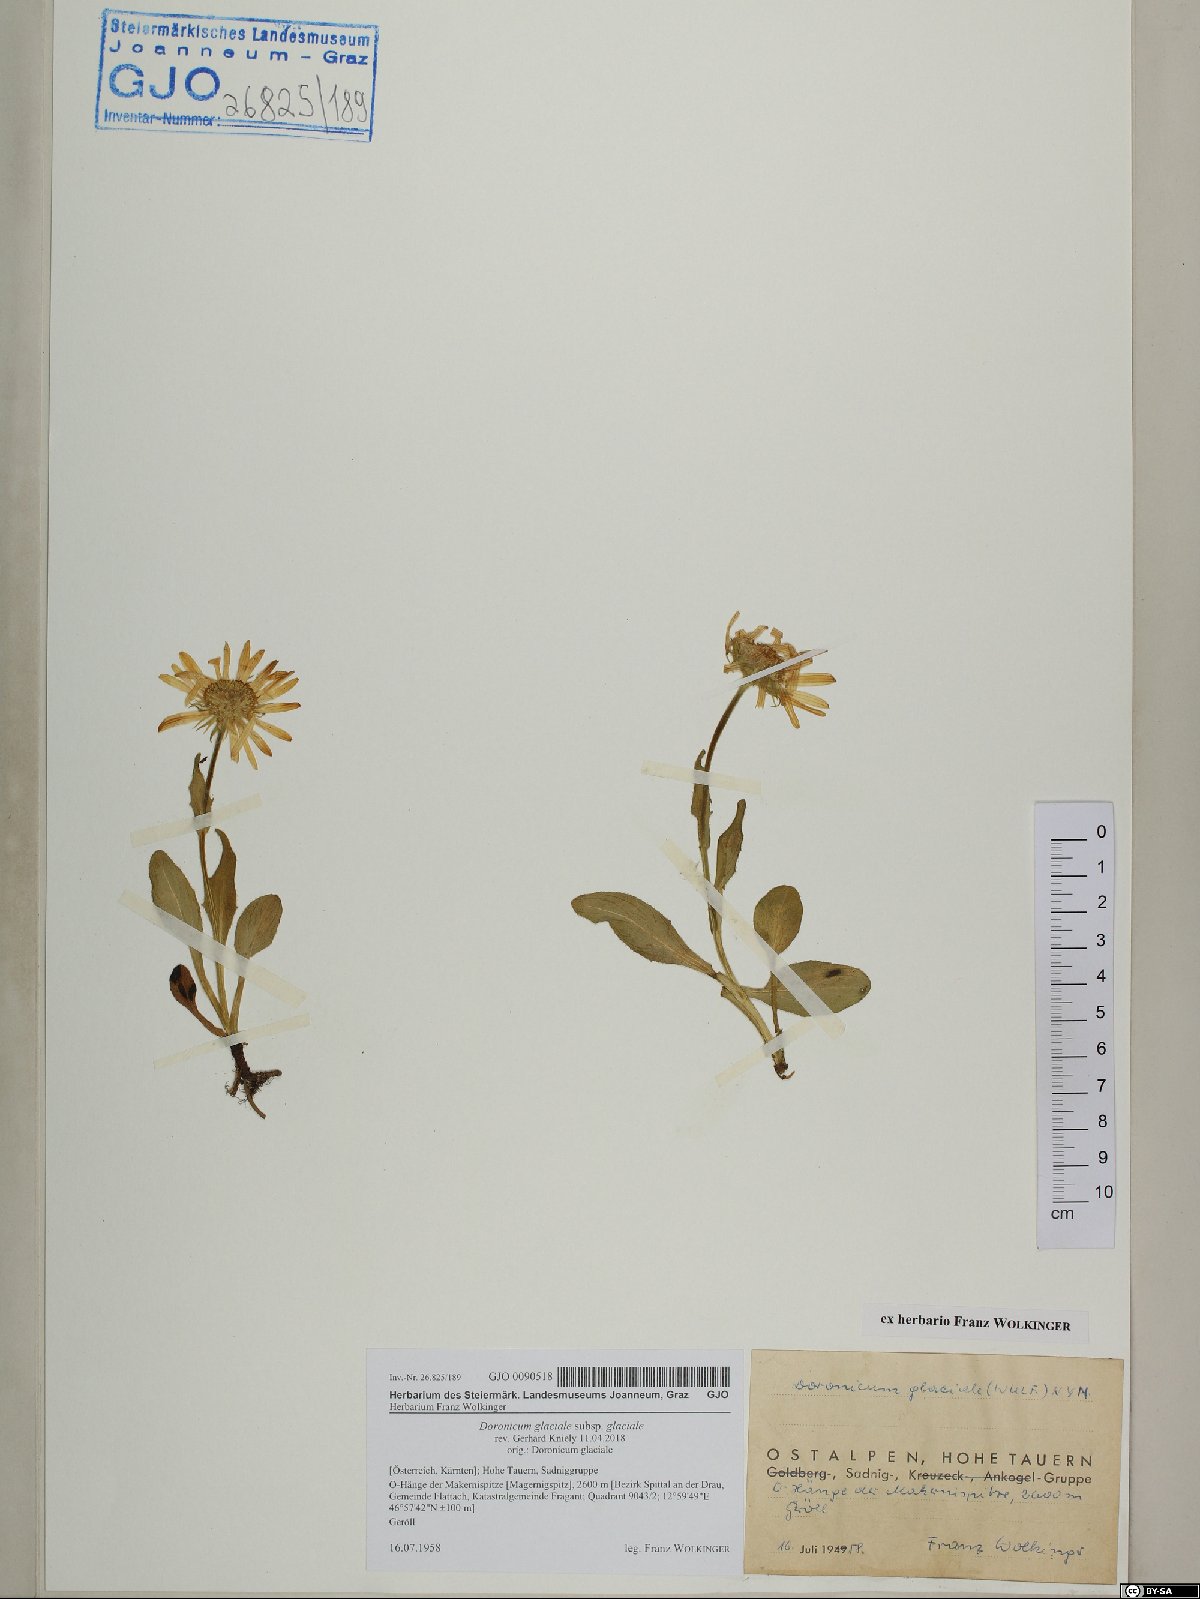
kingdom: Plantae
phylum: Tracheophyta
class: Magnoliopsida
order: Asterales
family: Asteraceae
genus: Doronicum
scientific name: Doronicum glaciale
